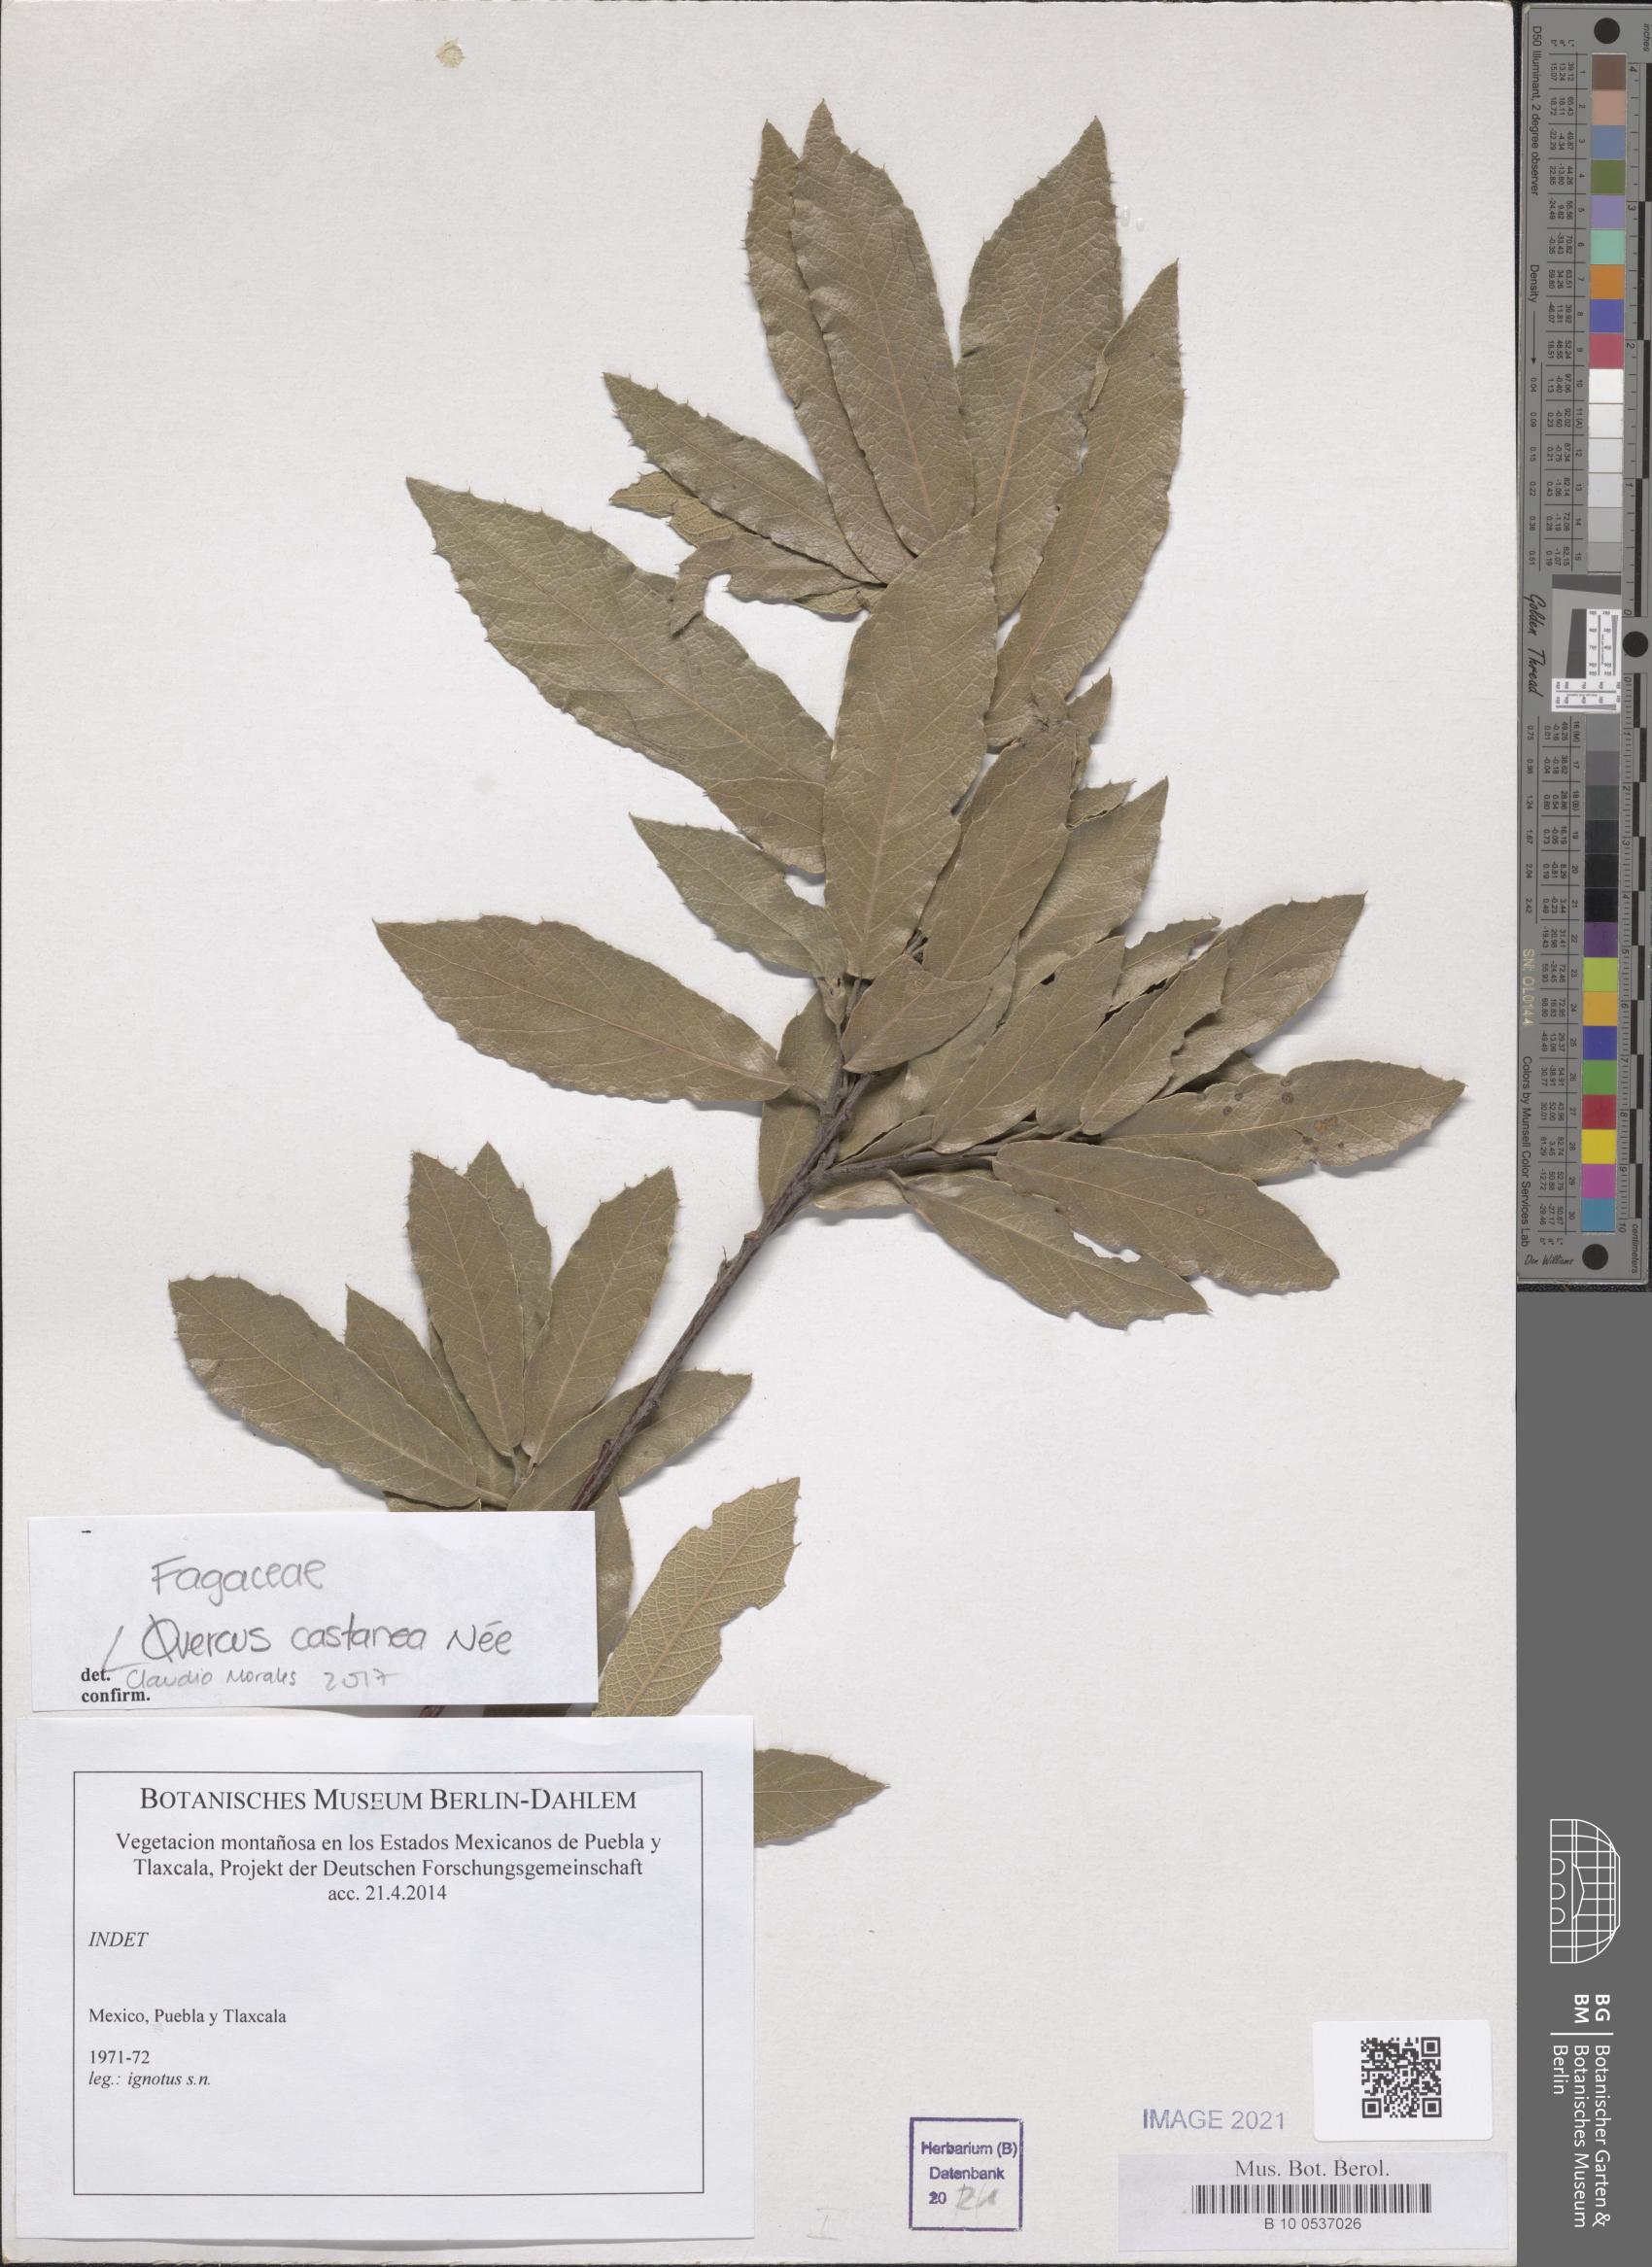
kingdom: Plantae
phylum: Tracheophyta
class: Magnoliopsida
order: Fagales
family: Fagaceae
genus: Quercus
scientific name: Quercus castanea
